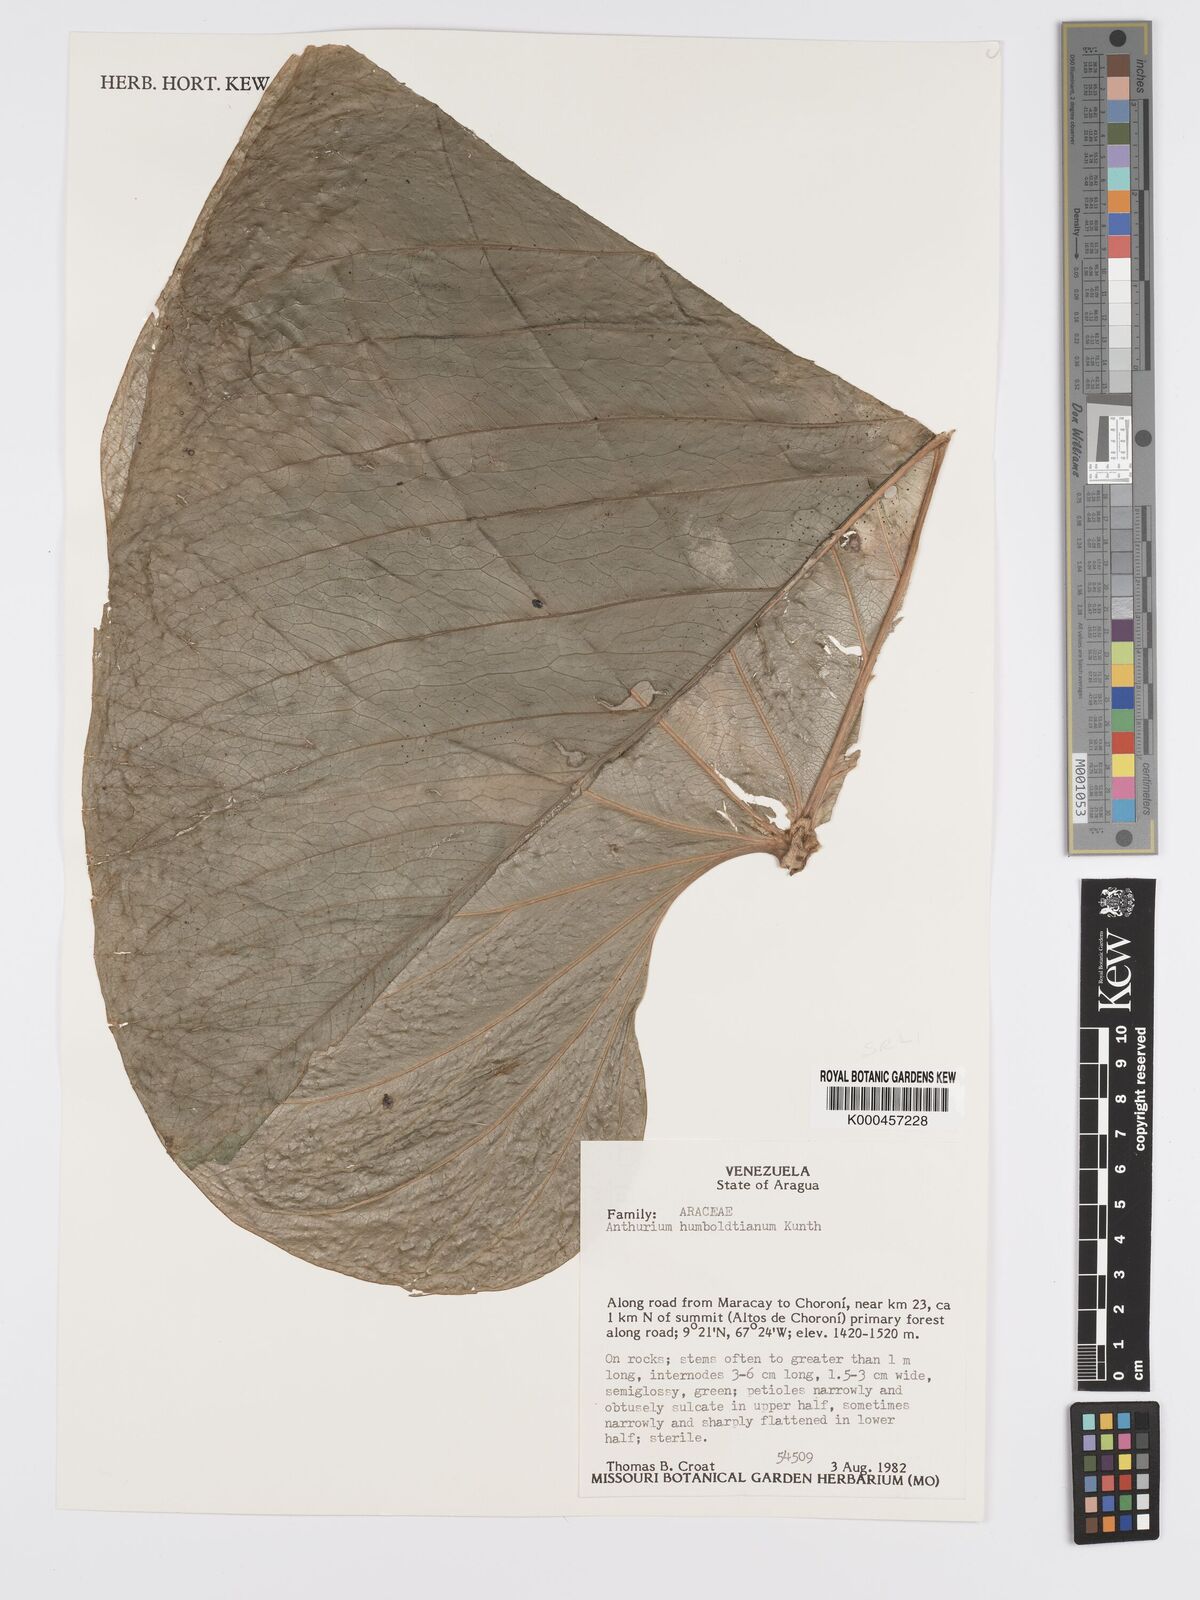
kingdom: Plantae
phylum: Tracheophyta
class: Liliopsida
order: Alismatales
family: Araceae
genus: Anthurium
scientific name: Anthurium
